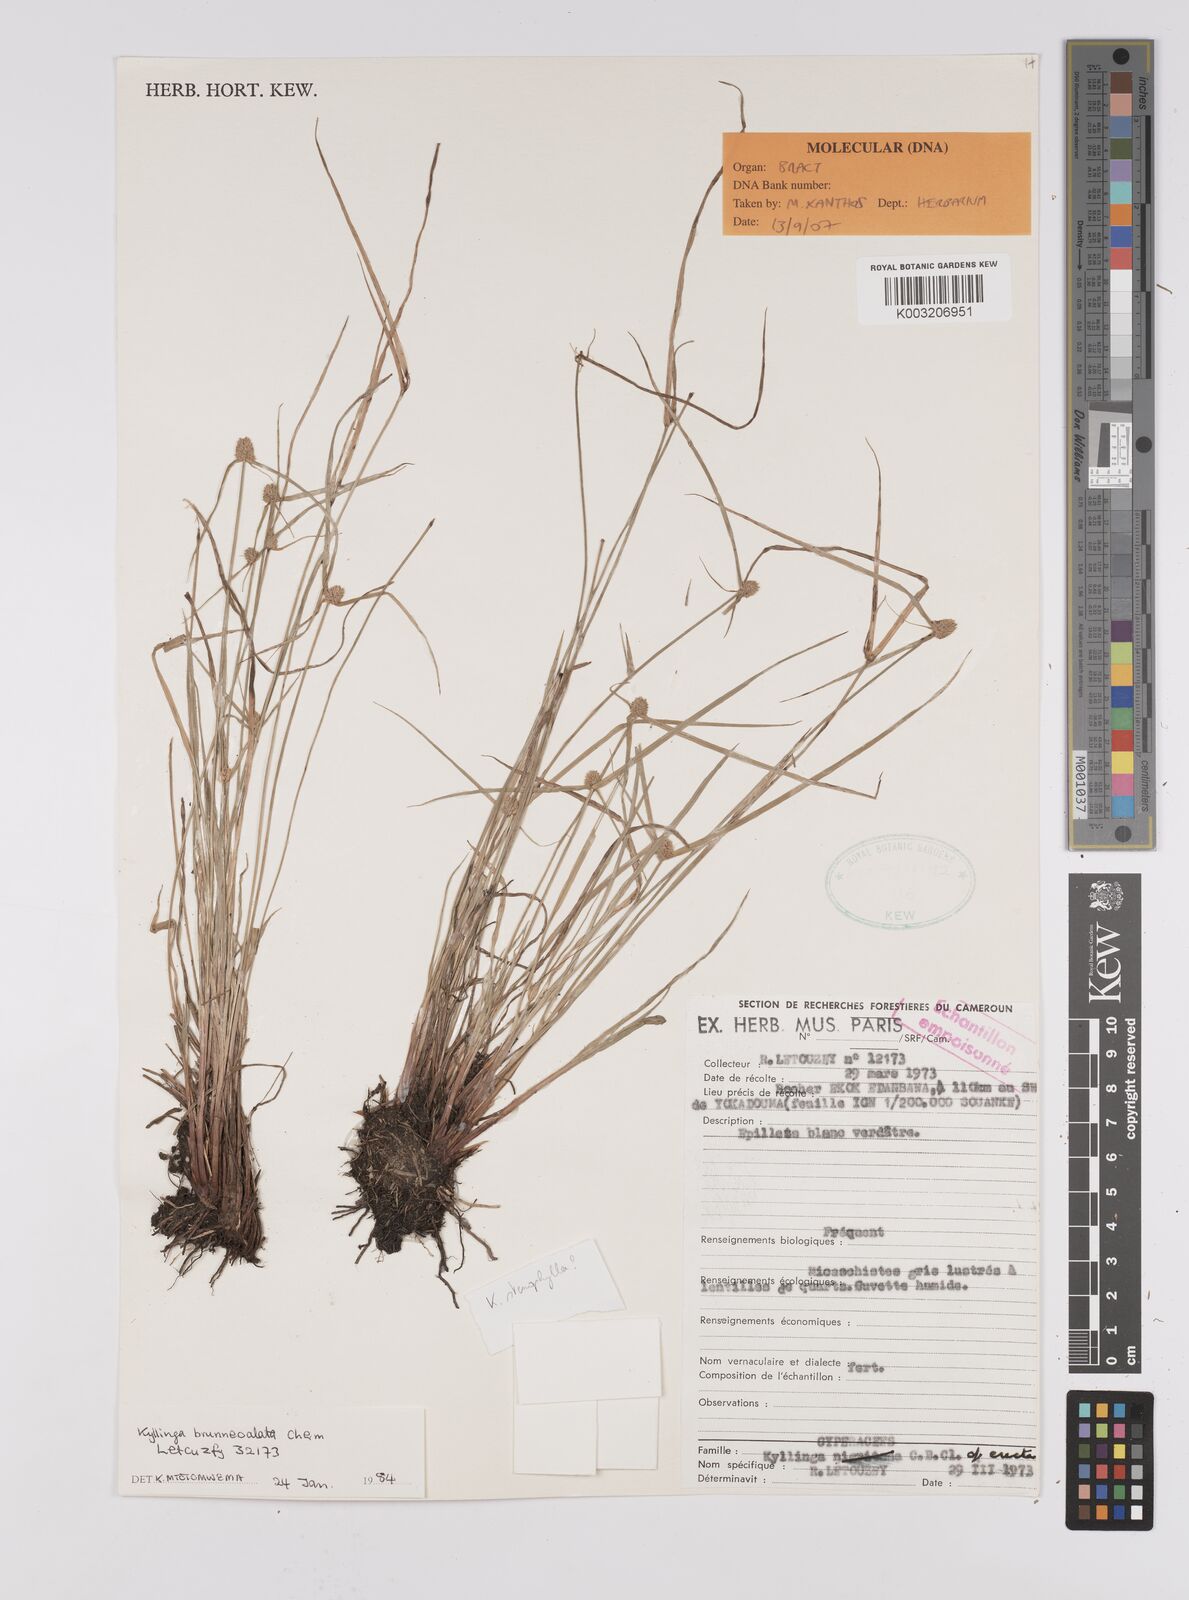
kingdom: Plantae
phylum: Tracheophyta
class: Liliopsida
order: Poales
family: Cyperaceae
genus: Cyperus
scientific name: Cyperus
